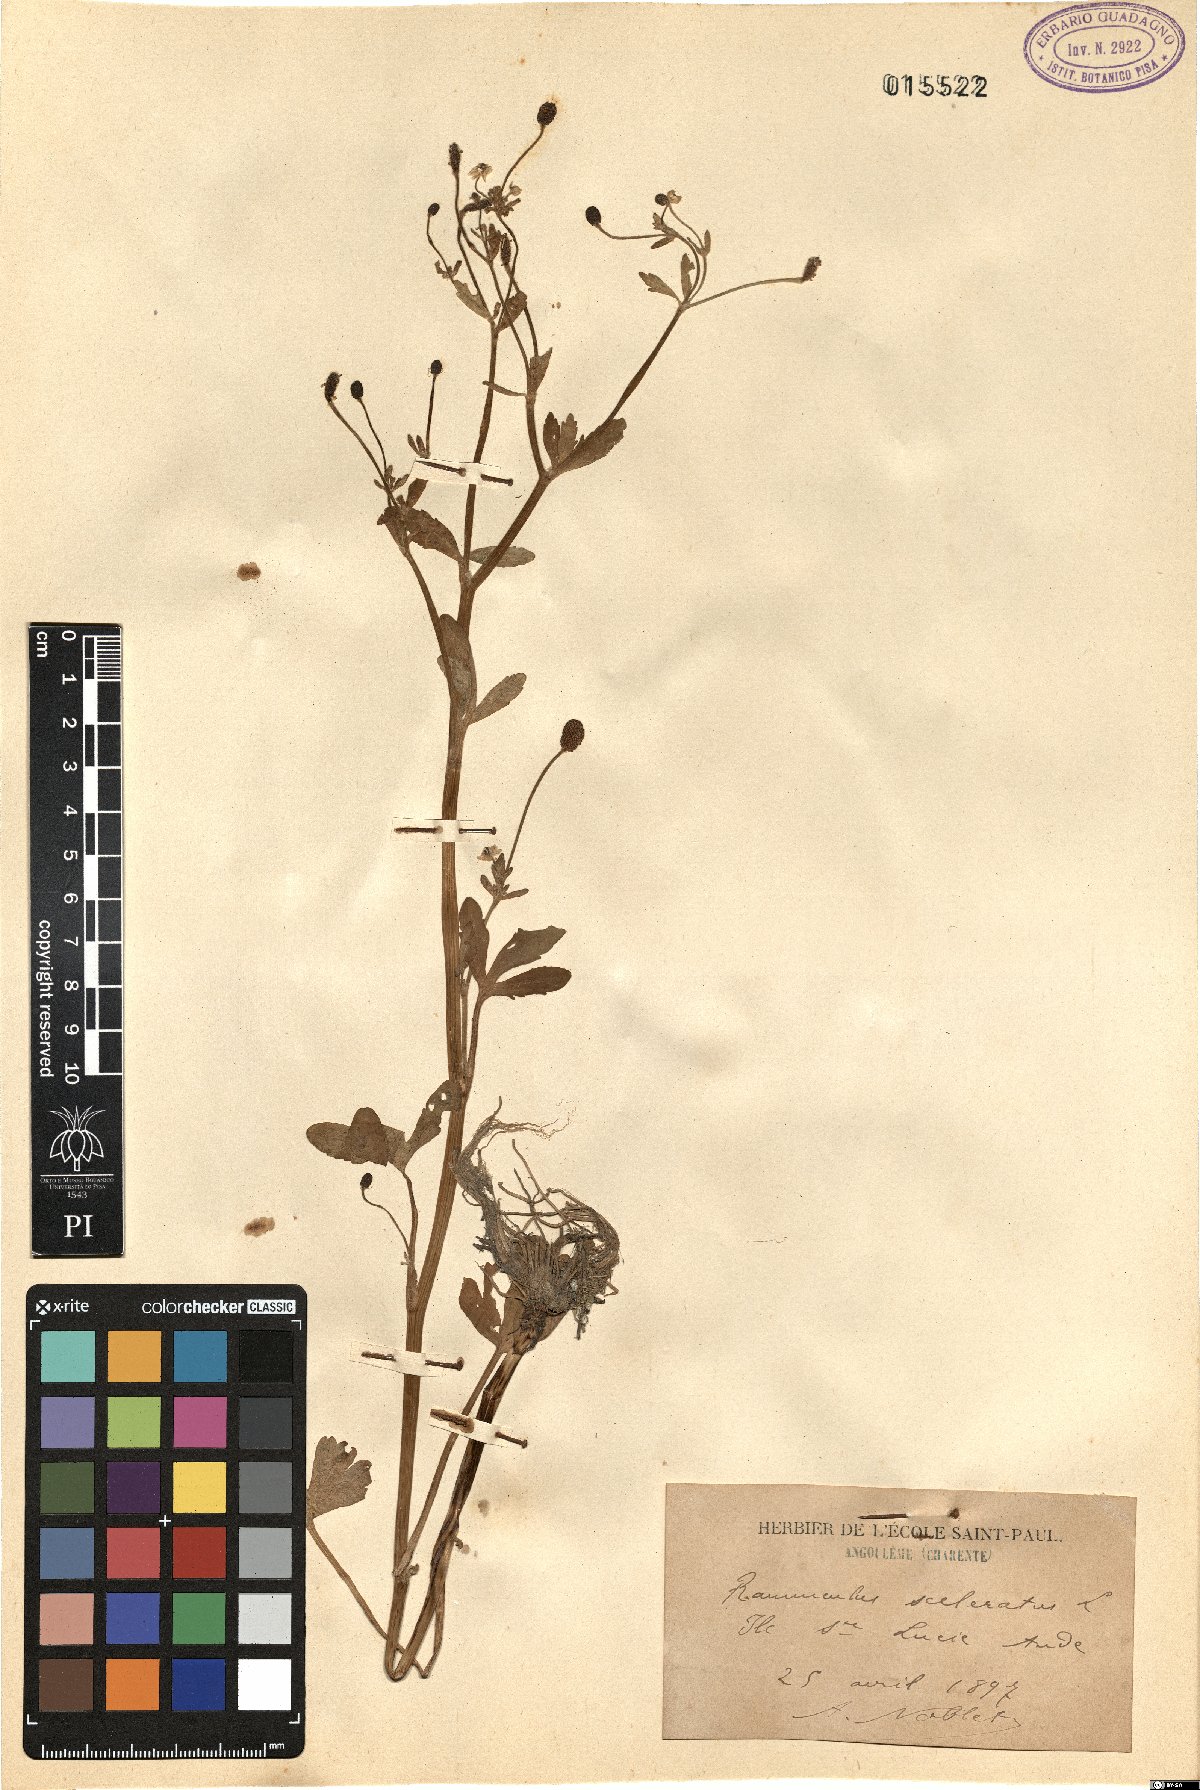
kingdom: Plantae
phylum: Tracheophyta
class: Magnoliopsida
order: Ranunculales
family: Ranunculaceae
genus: Ranunculus
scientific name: Ranunculus sceleratus
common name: Celery-leaved buttercup
